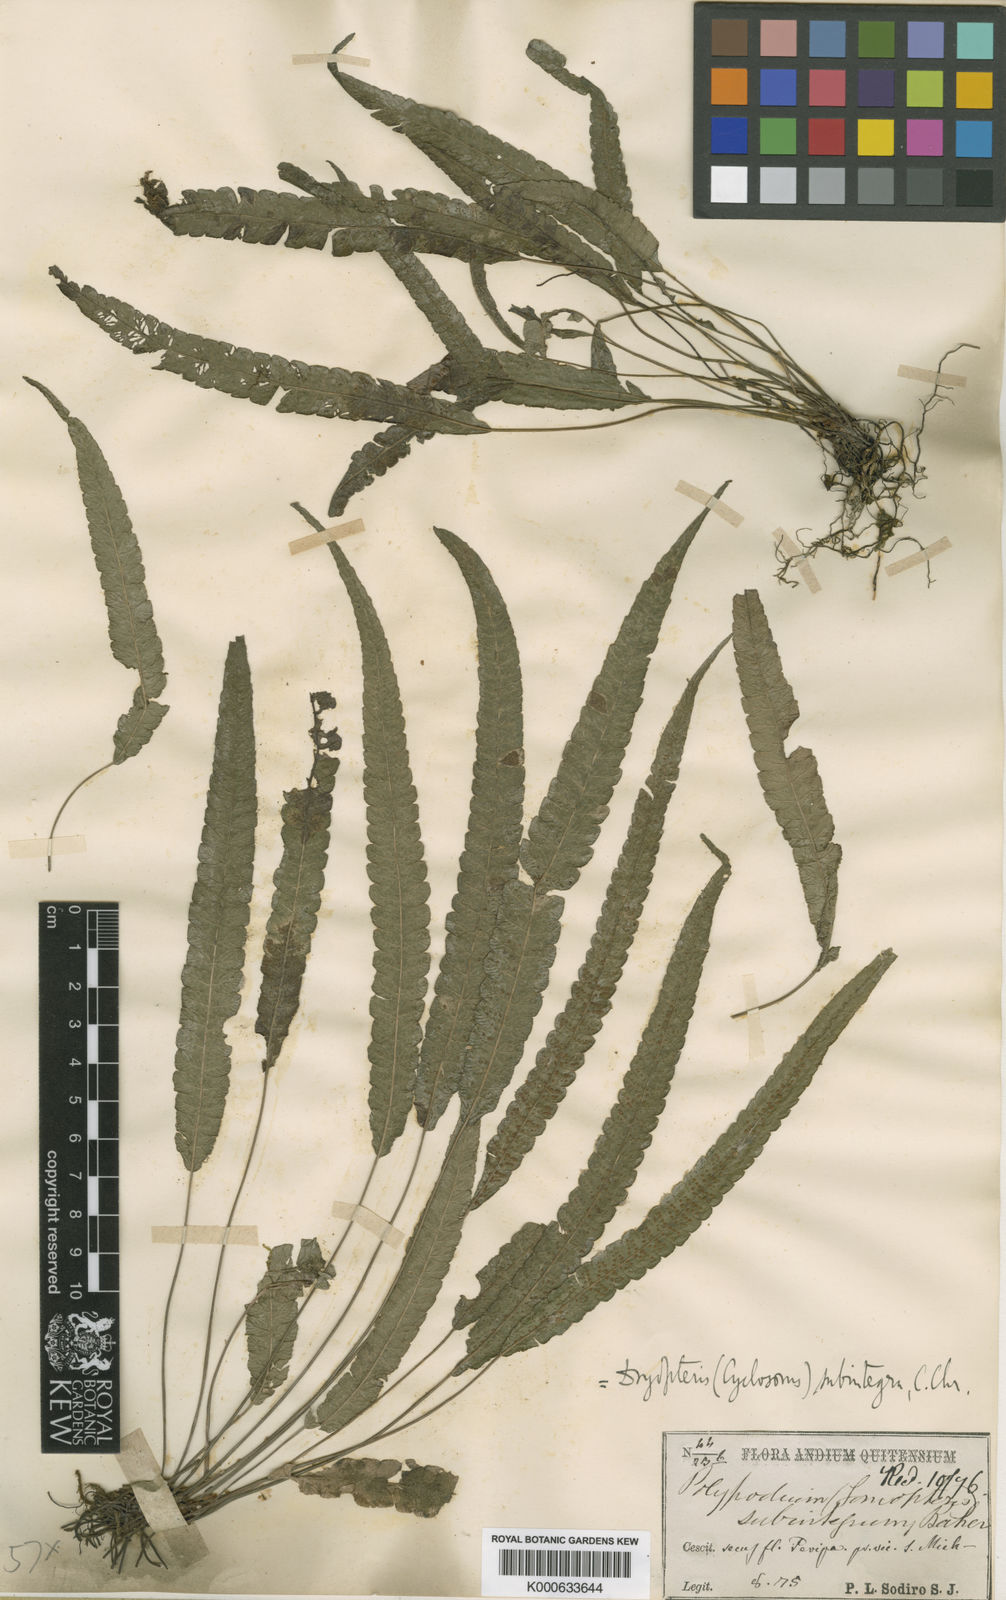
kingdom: Plantae
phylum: Tracheophyta
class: Polypodiopsida
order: Polypodiales
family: Thelypteridaceae
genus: Goniopteris
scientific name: Goniopteris
